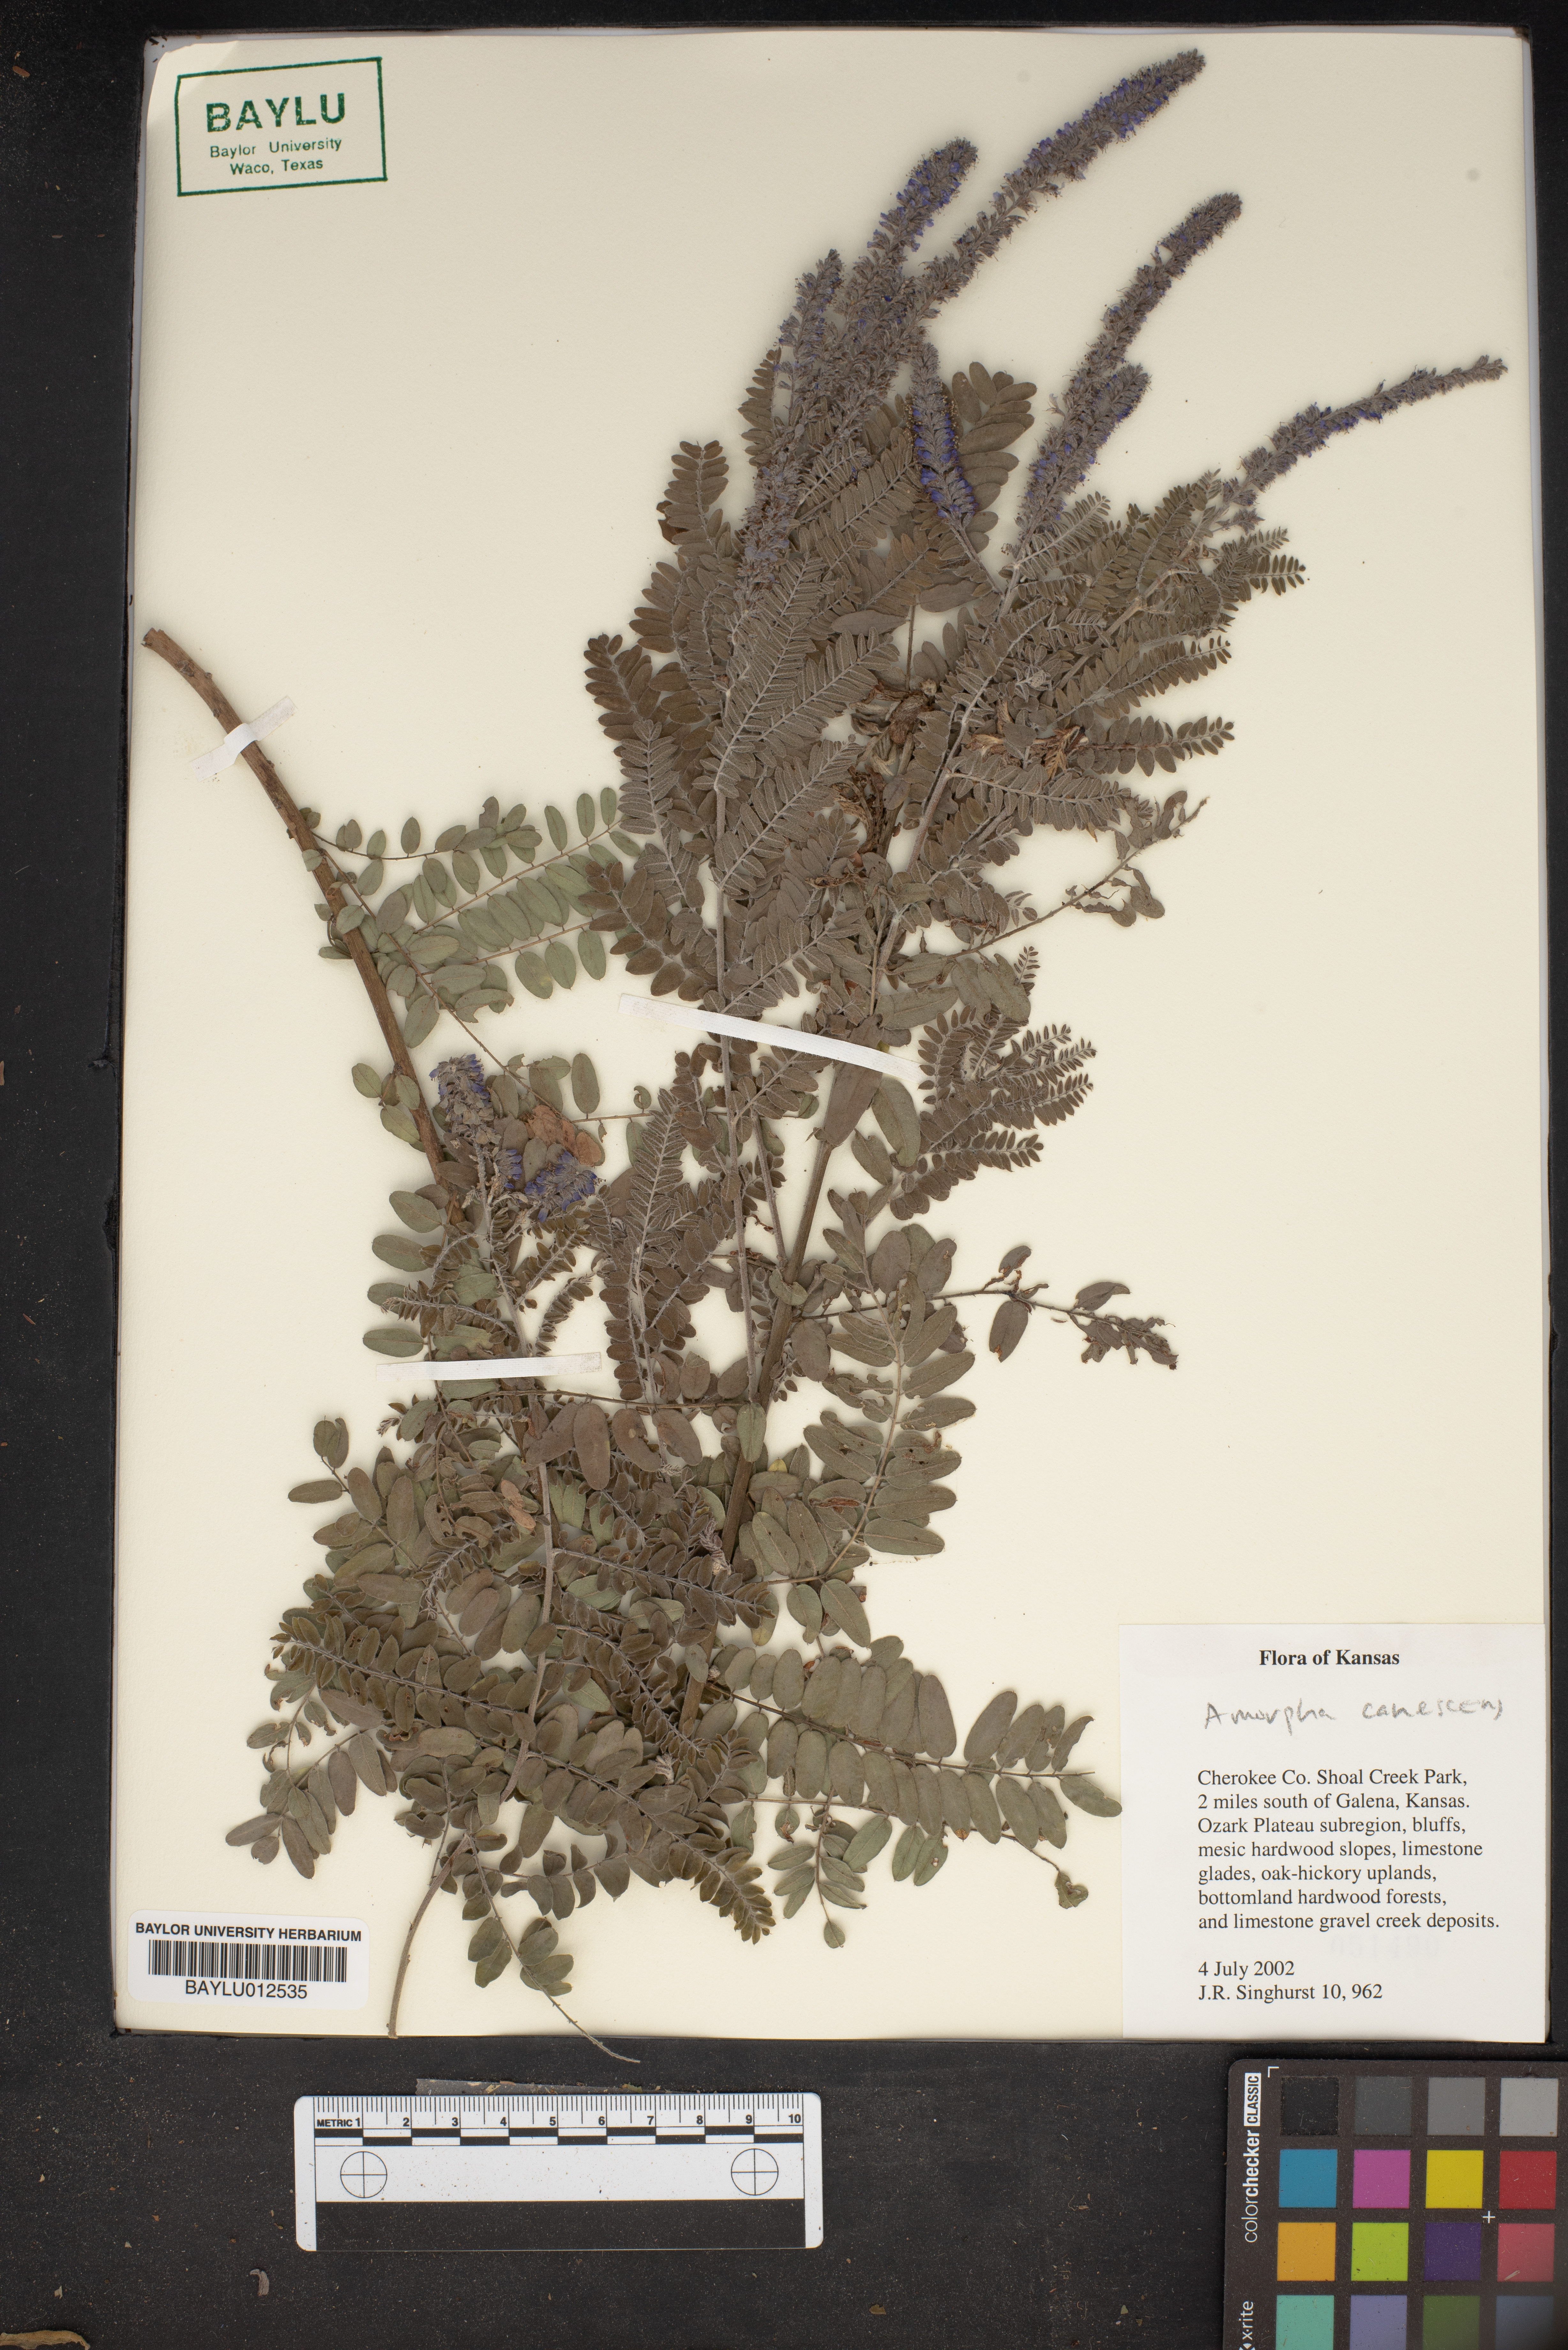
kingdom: Plantae
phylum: Tracheophyta
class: Magnoliopsida
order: Fabales
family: Fabaceae
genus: Amorpha
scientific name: Amorpha canescens
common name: Leadplant
